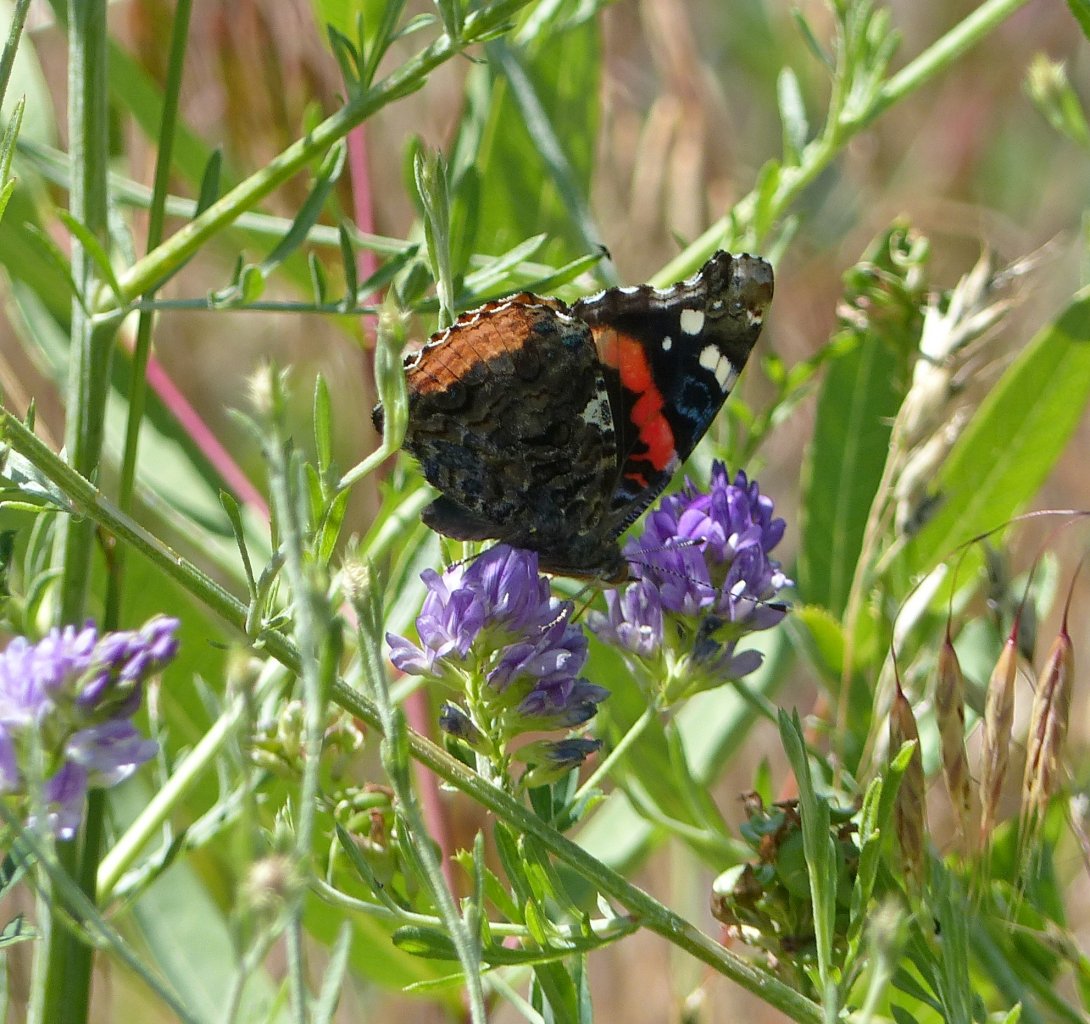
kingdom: Animalia
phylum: Arthropoda
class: Insecta
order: Lepidoptera
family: Nymphalidae
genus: Vanessa
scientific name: Vanessa atalanta
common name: Red Admiral
